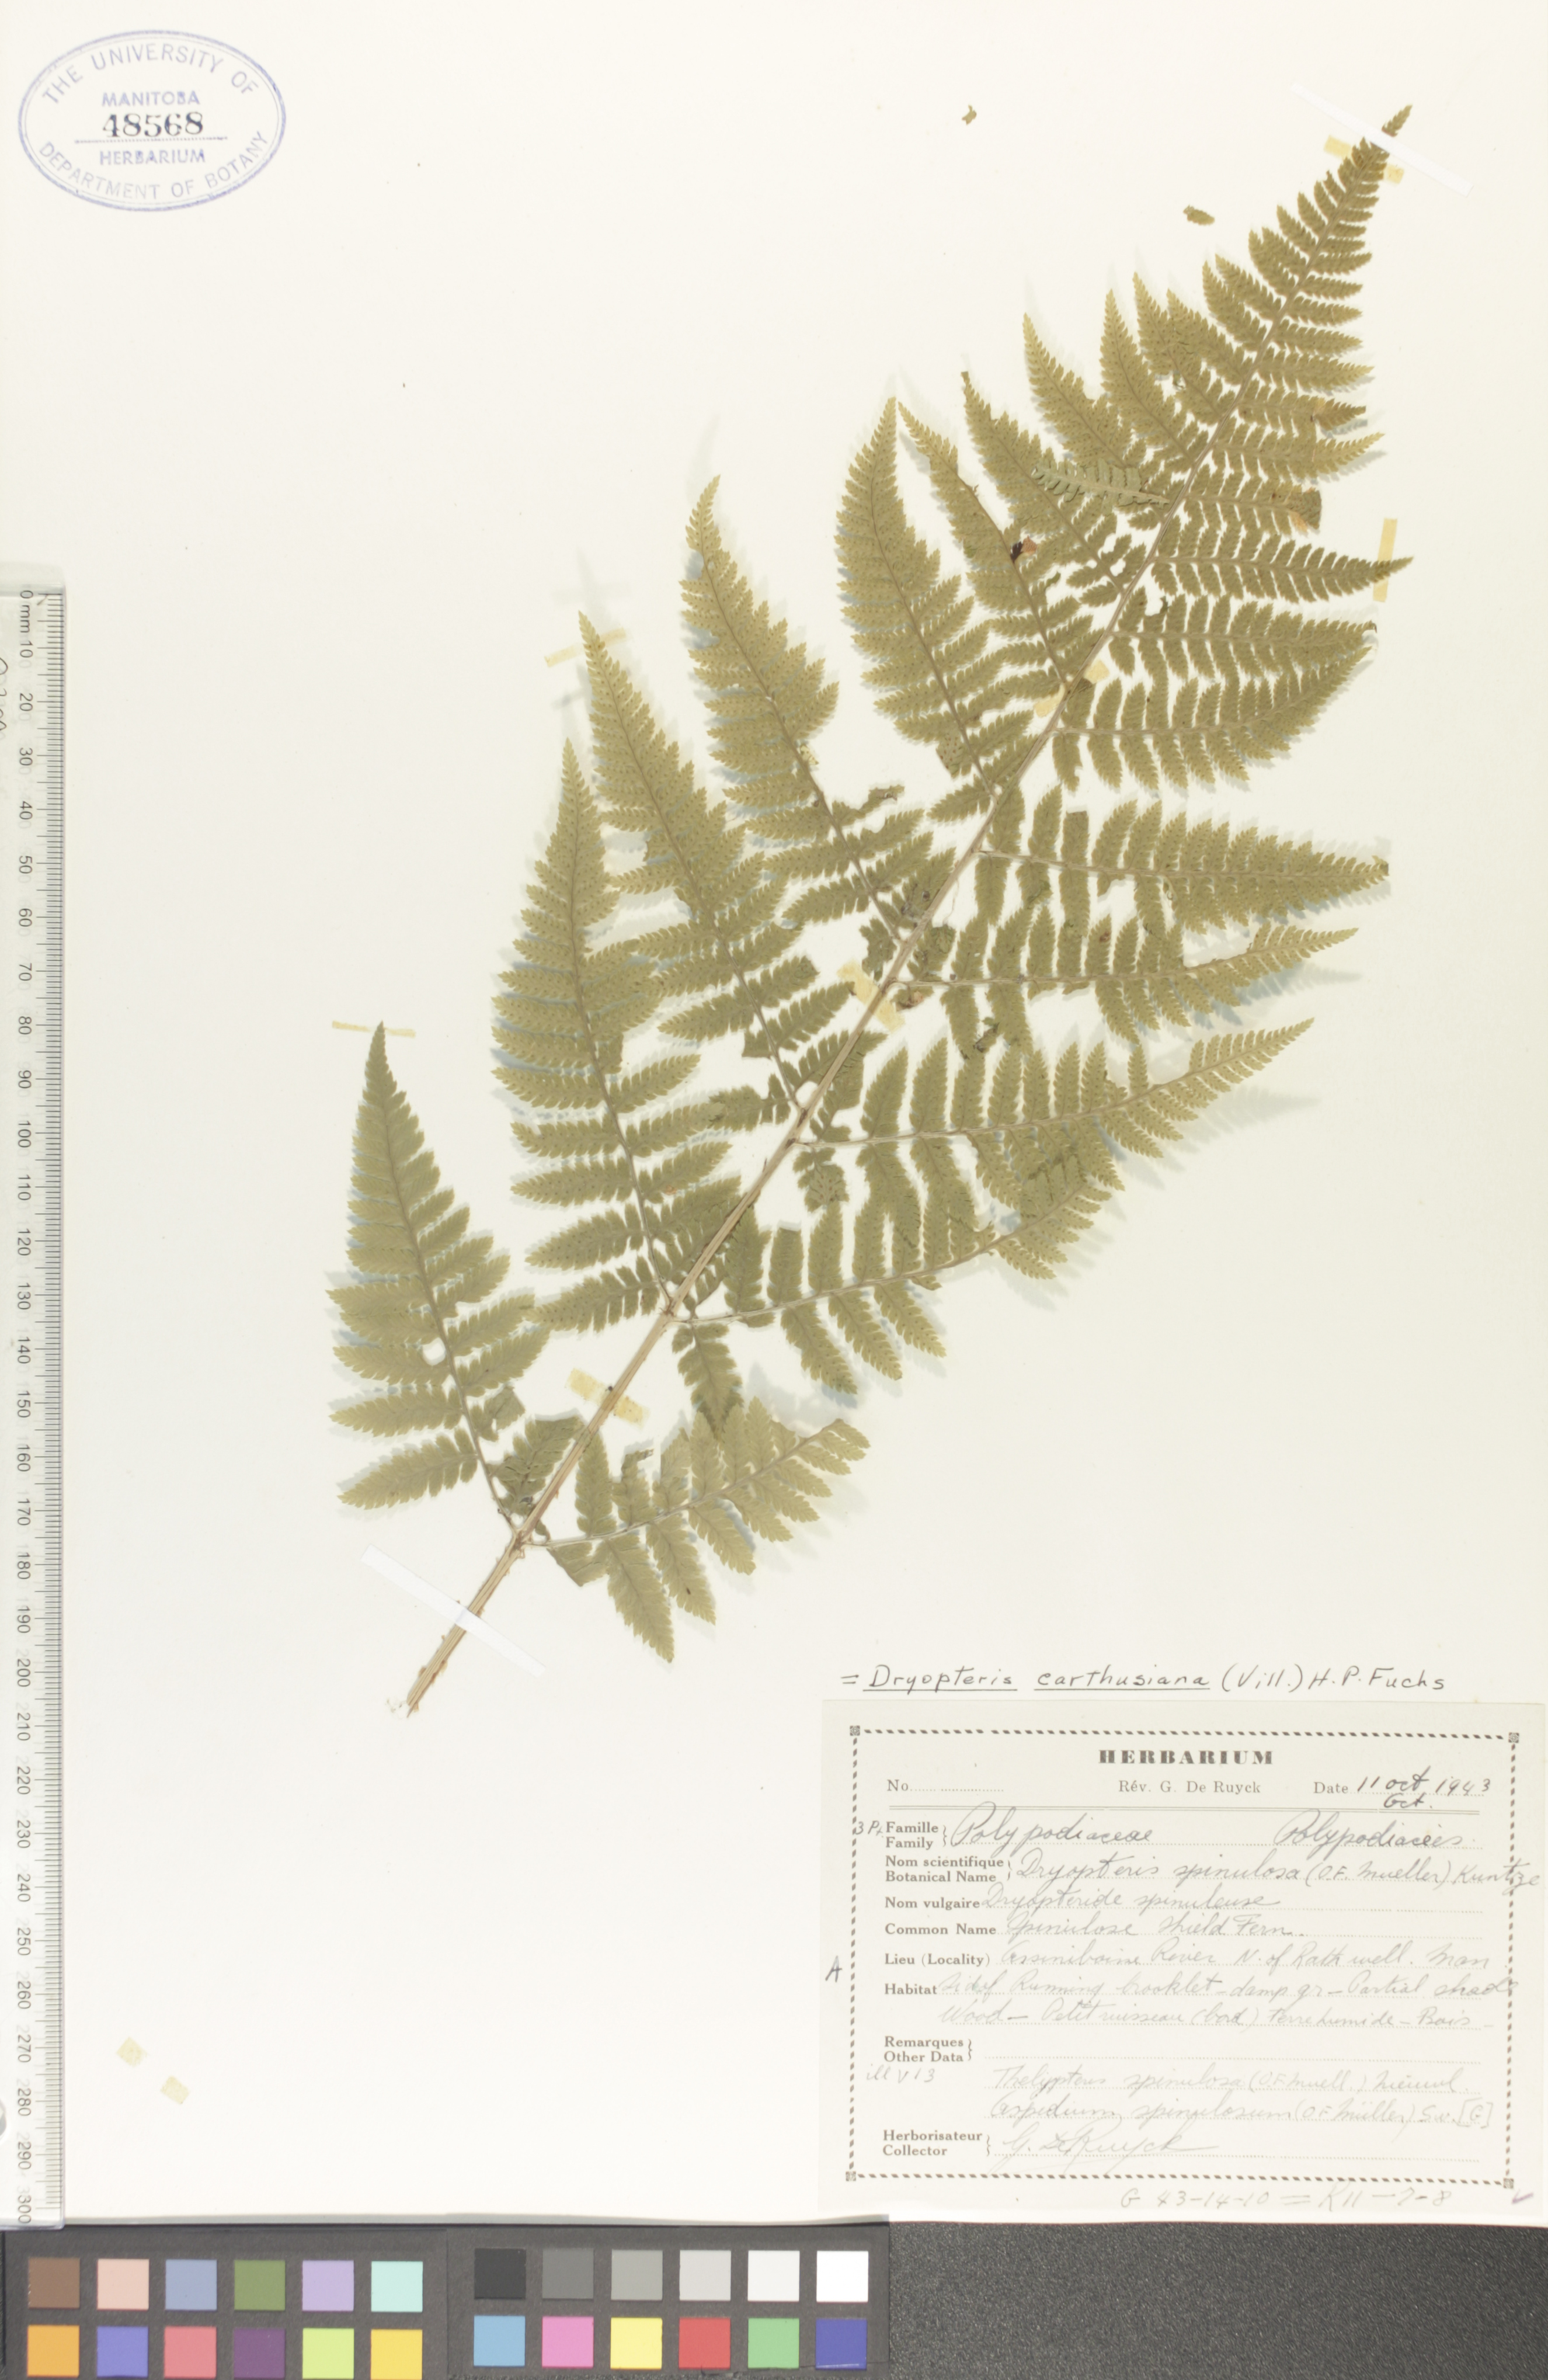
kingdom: Plantae
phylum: Tracheophyta
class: Polypodiopsida
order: Polypodiales
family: Dryopteridaceae
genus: Dryopteris
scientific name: Dryopteris carthusiana
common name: Narrow buckler-fern
